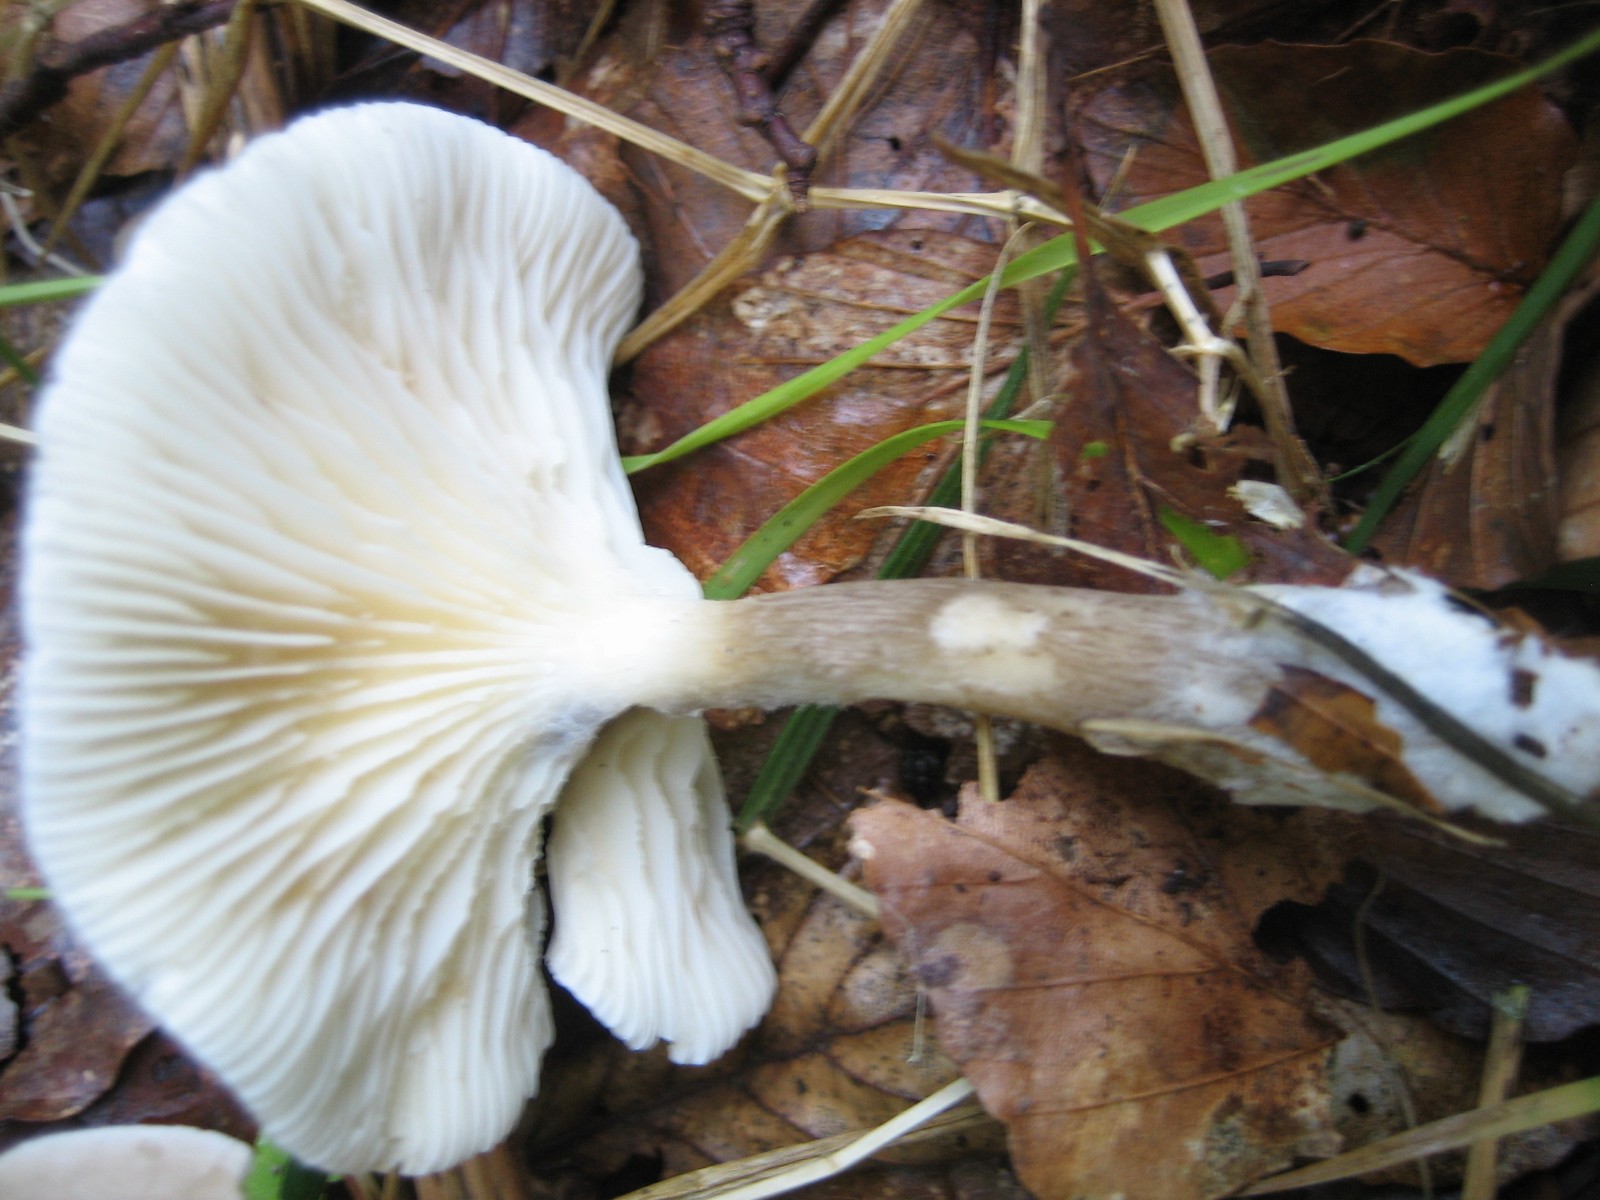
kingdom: Fungi
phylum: Basidiomycota
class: Agaricomycetes
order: Agaricales
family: Hygrophoraceae
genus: Ampulloclitocybe
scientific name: Ampulloclitocybe clavipes
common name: køllefod
